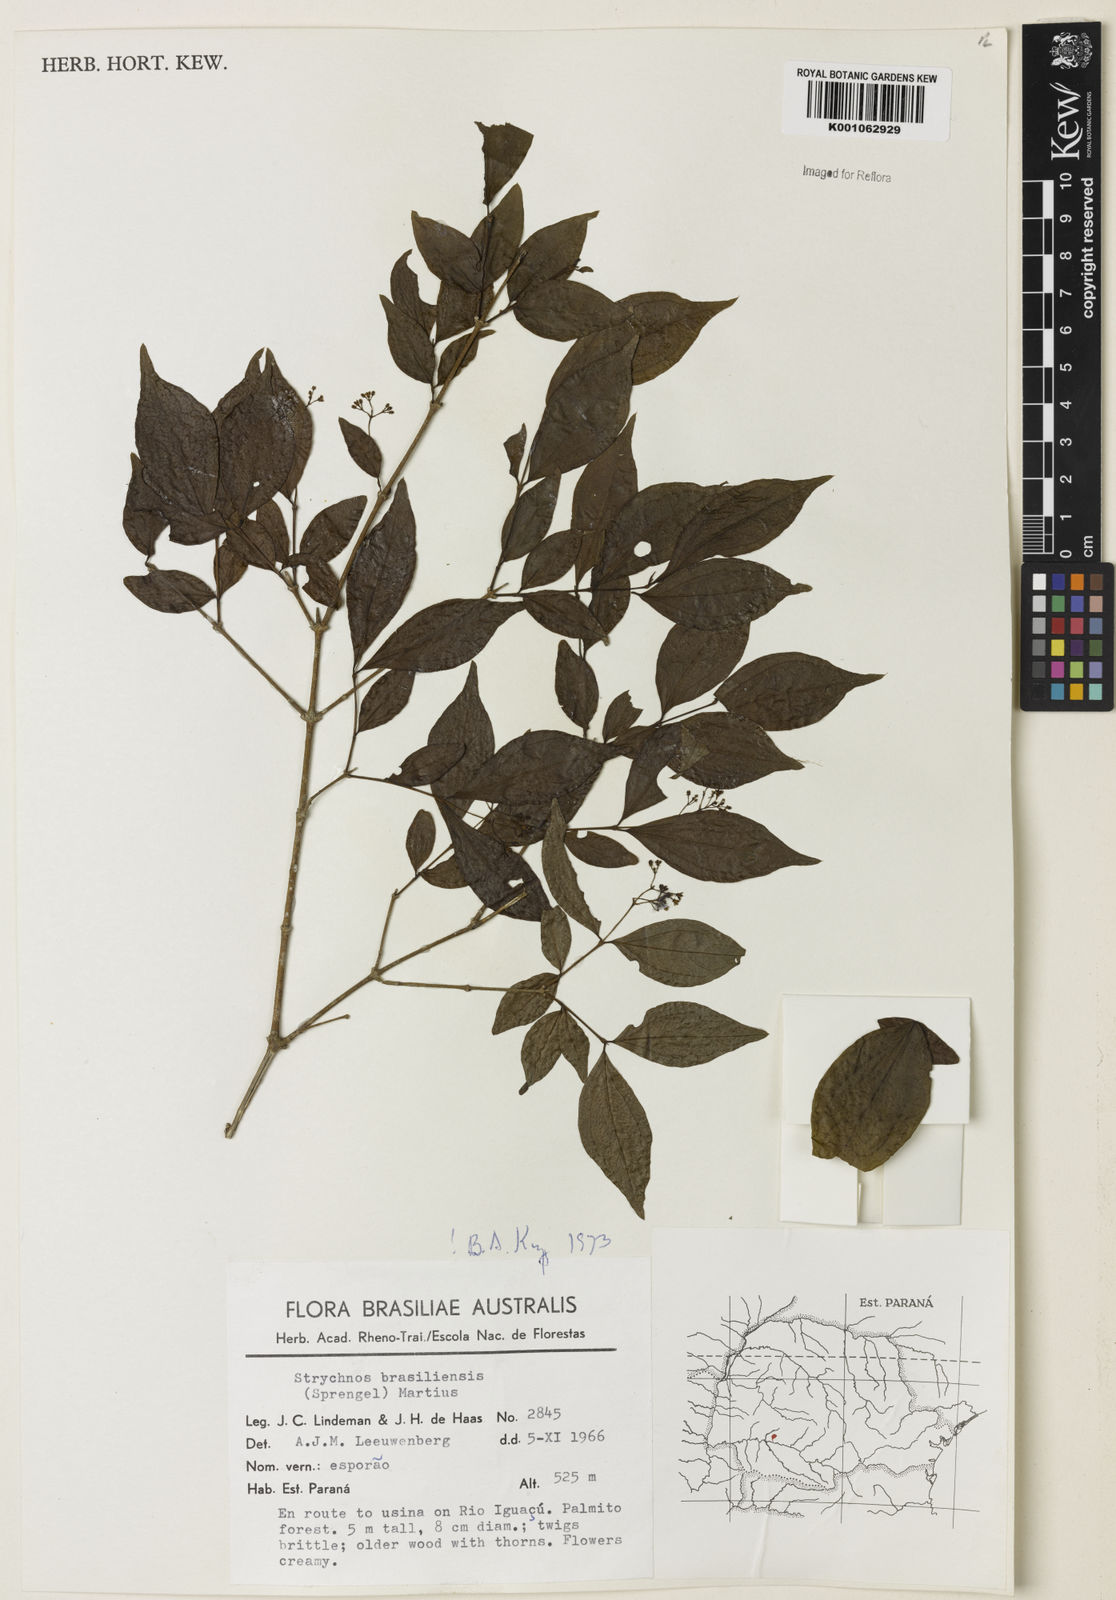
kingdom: Plantae
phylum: Tracheophyta
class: Magnoliopsida
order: Gentianales
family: Loganiaceae
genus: Strychnos
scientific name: Strychnos brasiliensis
